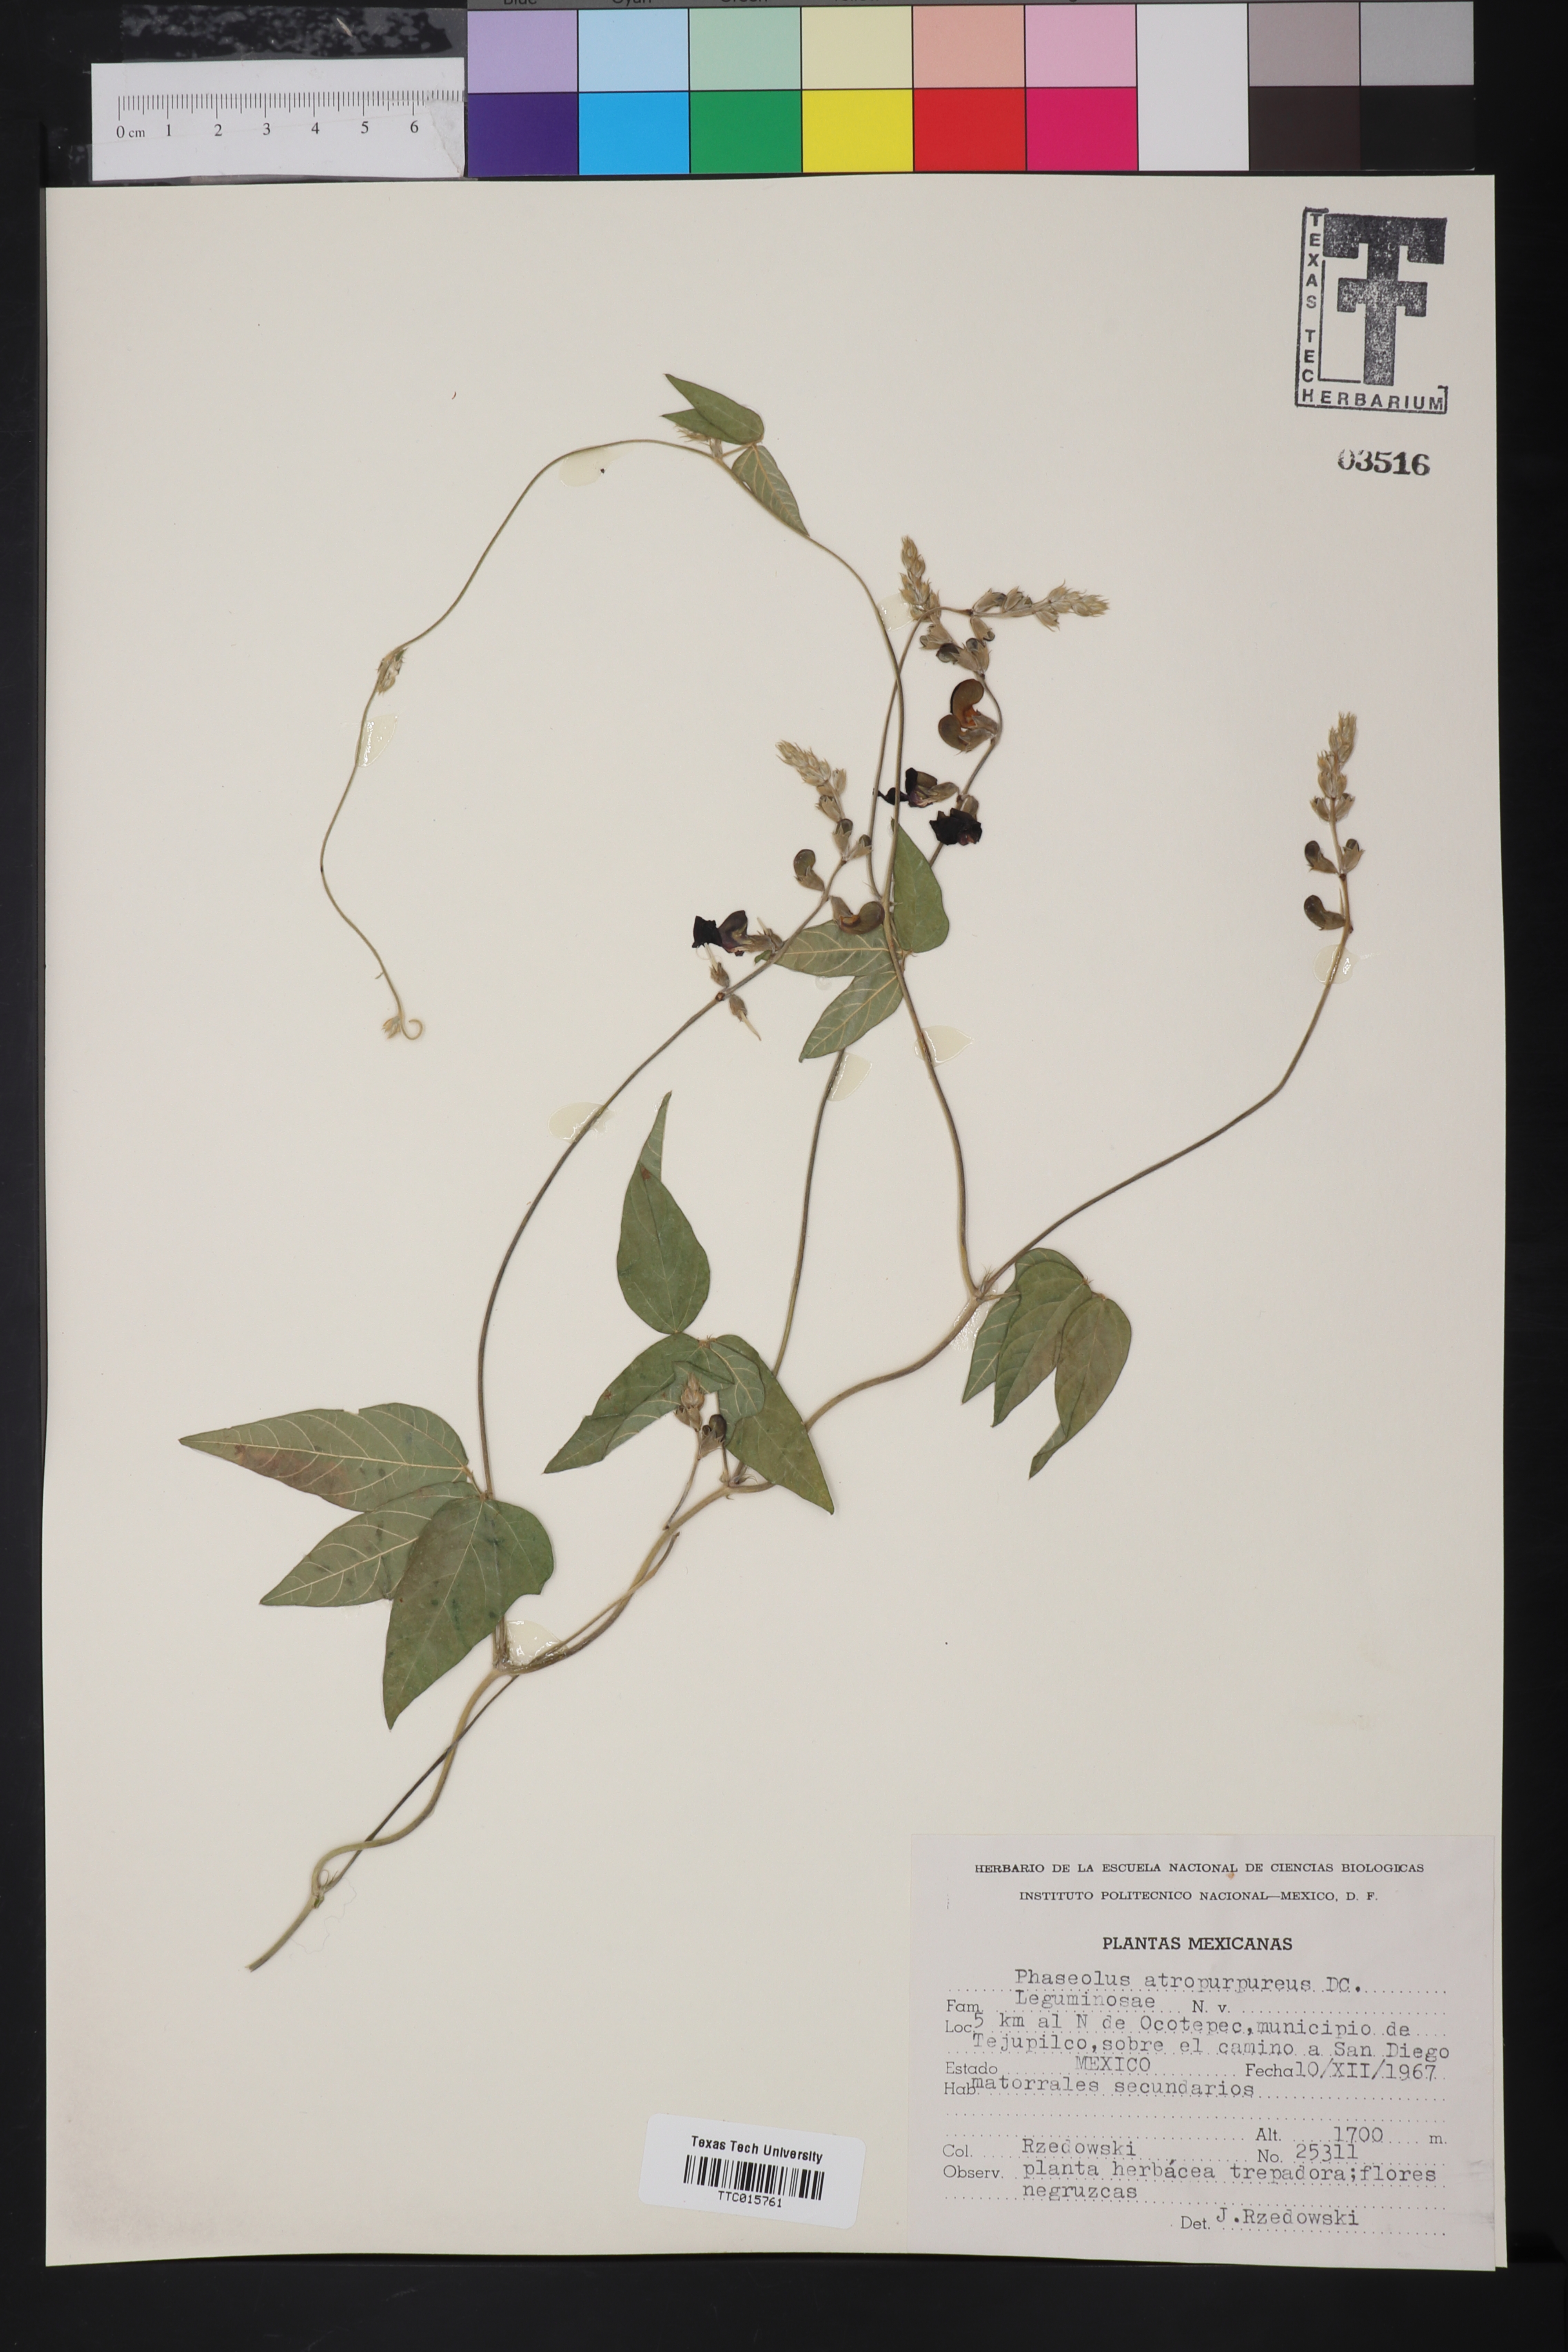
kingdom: Plantae
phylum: Tracheophyta
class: Magnoliopsida
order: Fabales
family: Fabaceae
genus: Macroptilium
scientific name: Macroptilium atropurpureum
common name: Purple bushbean
